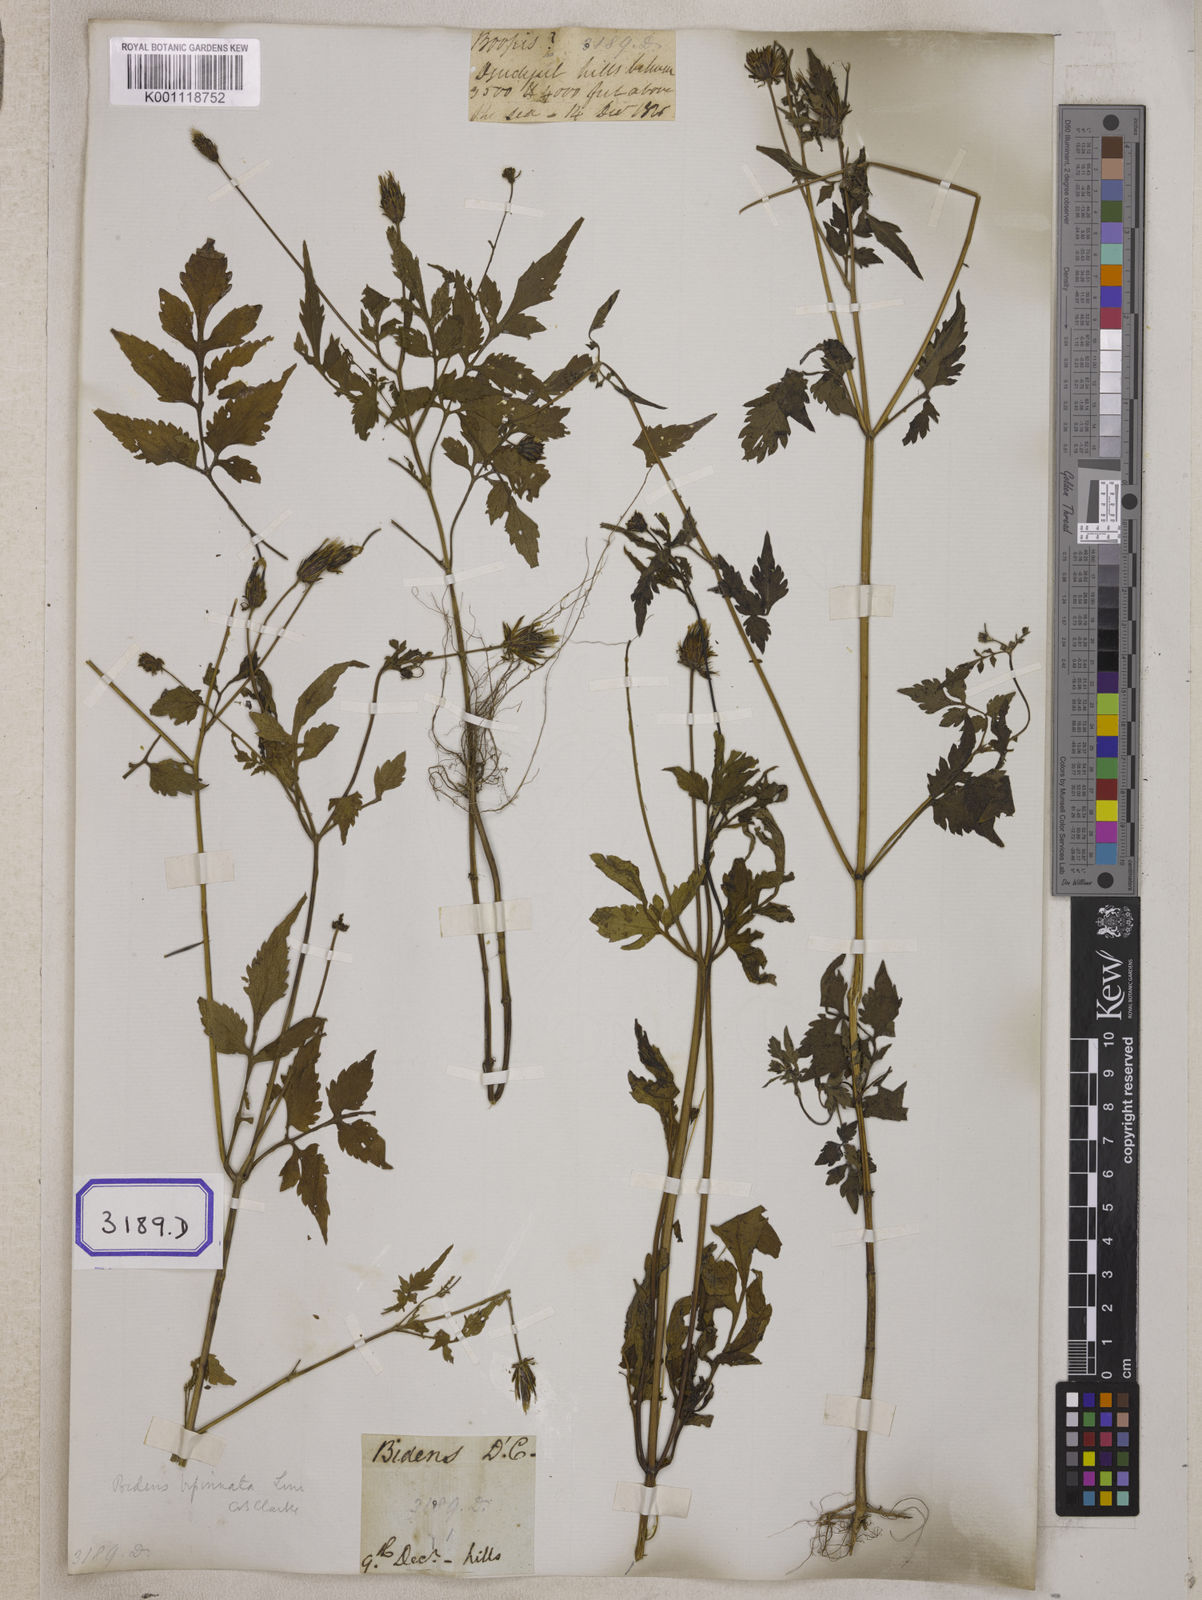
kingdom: Plantae
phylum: Tracheophyta
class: Magnoliopsida
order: Asterales
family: Asteraceae
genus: Bidens
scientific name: Bidens biternata
